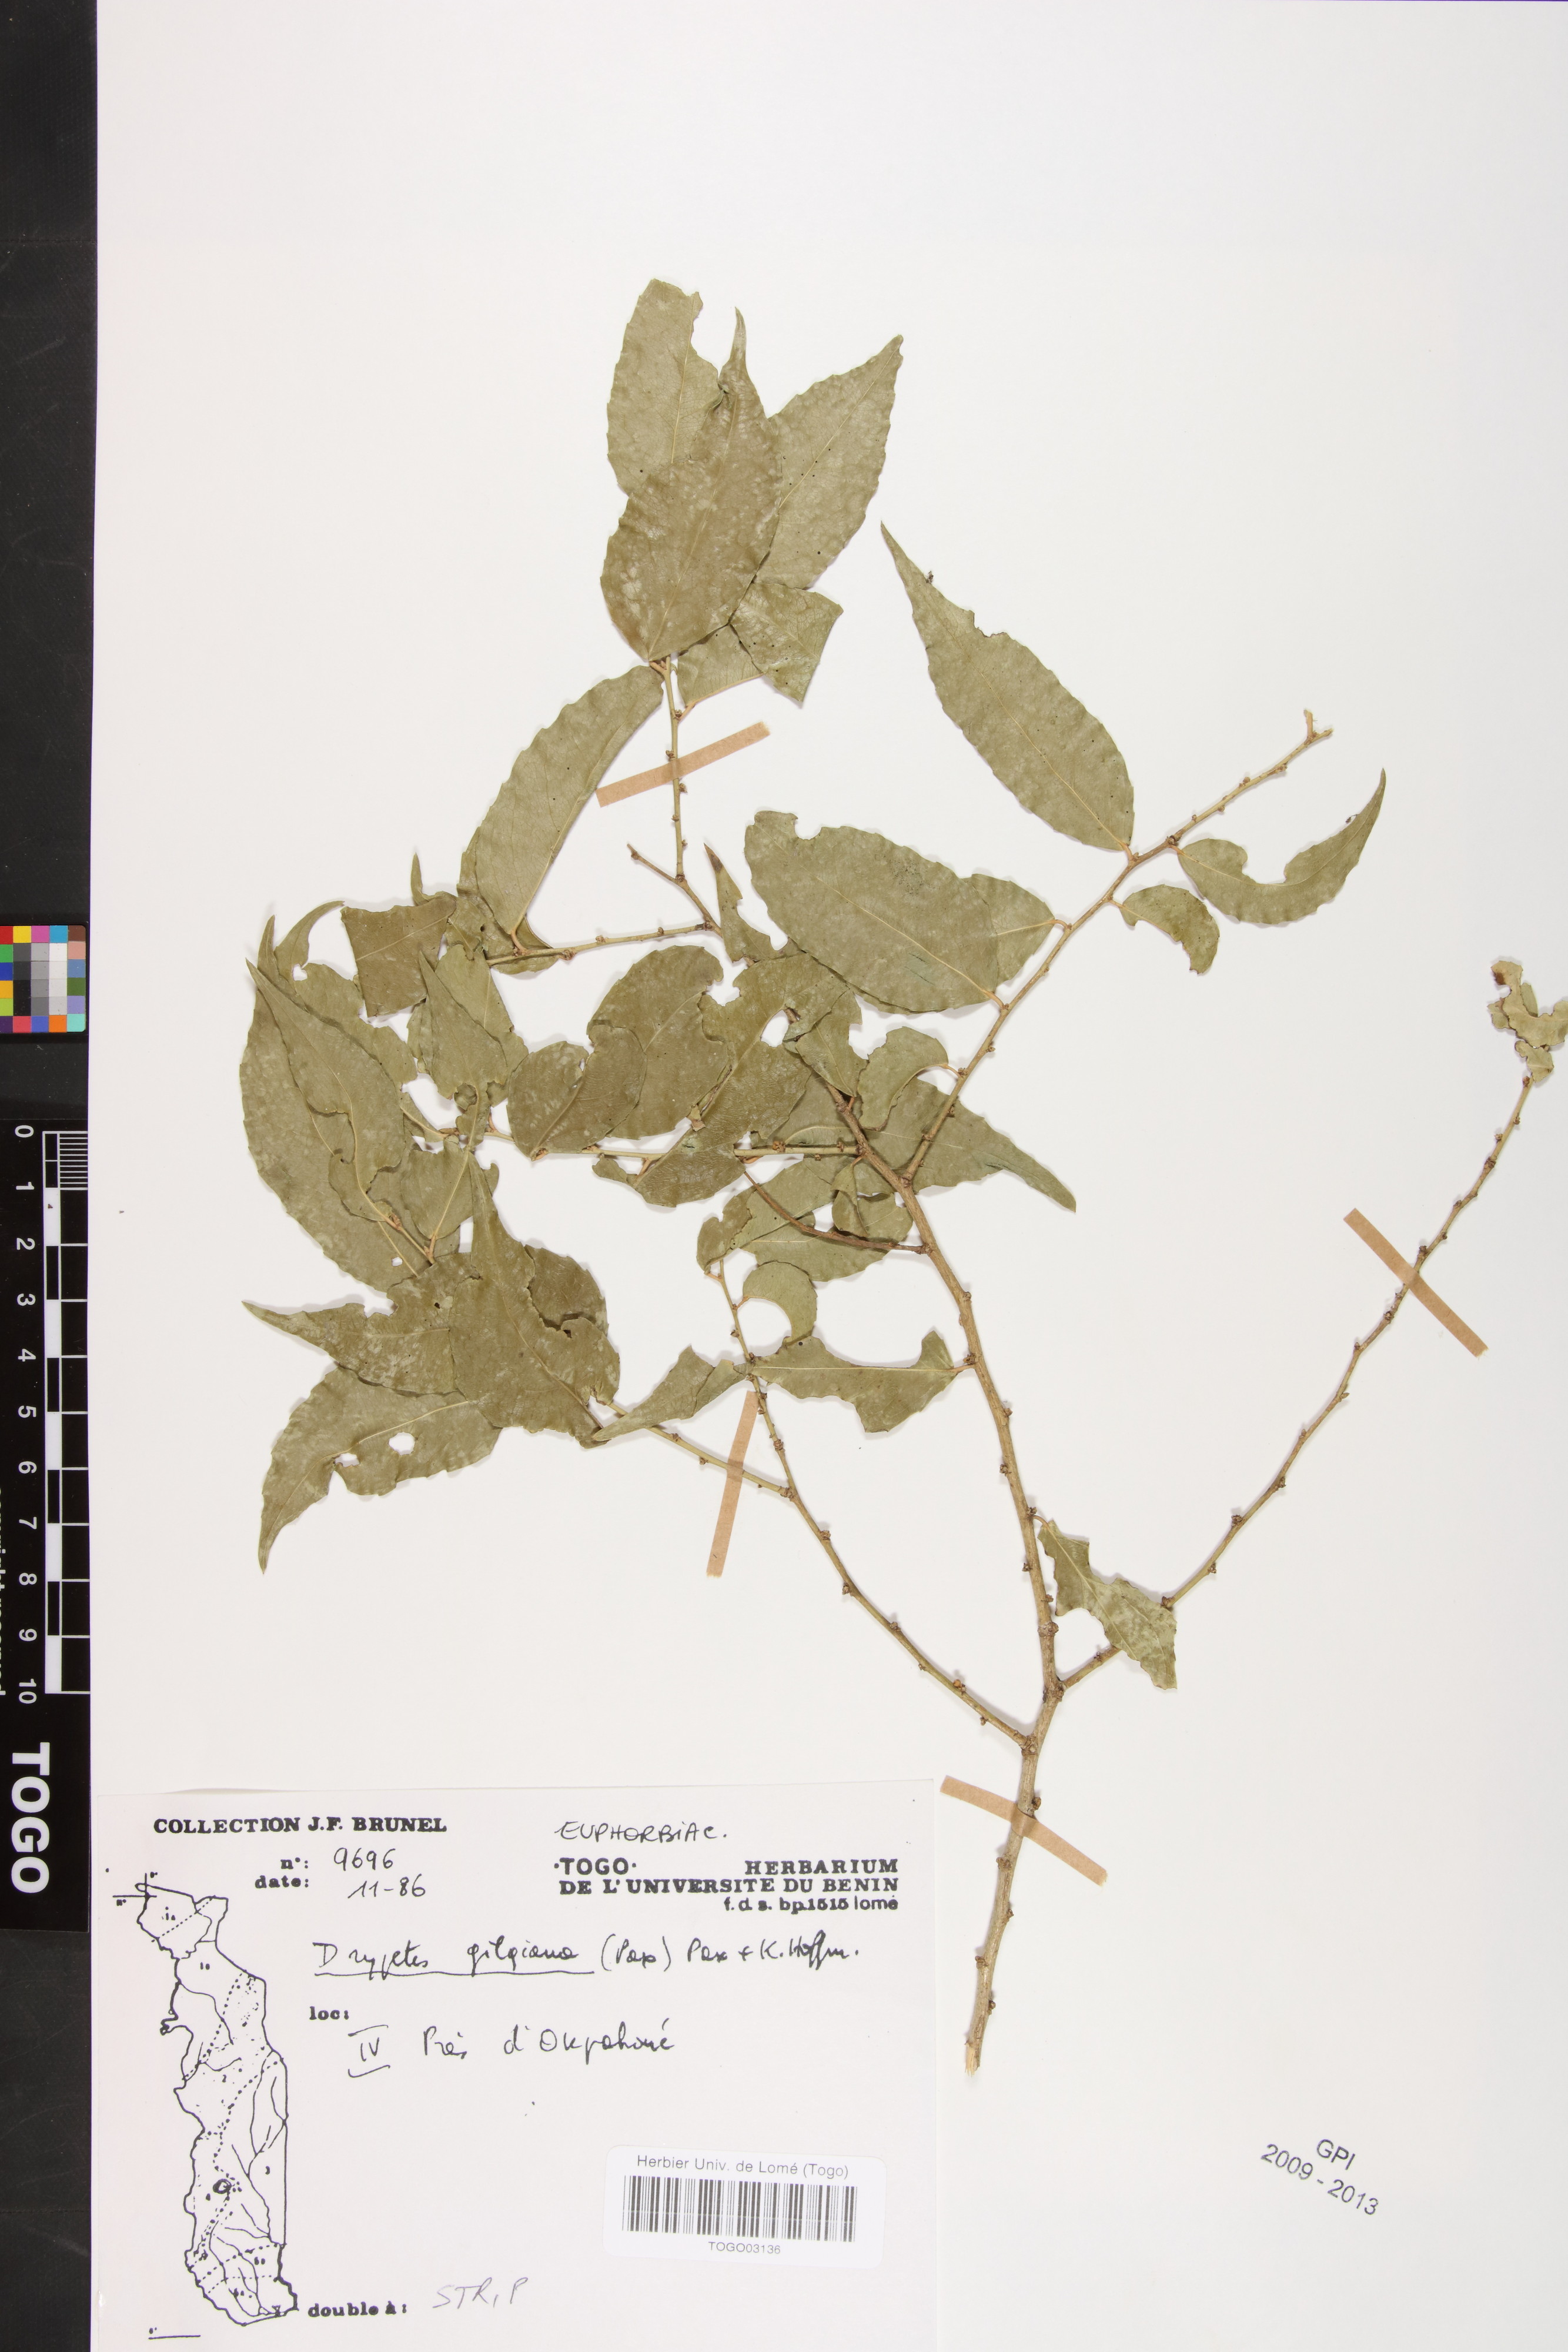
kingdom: Plantae
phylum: Tracheophyta
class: Magnoliopsida
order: Malpighiales
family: Putranjivaceae
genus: Drypetes
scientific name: Drypetes gilgiana
